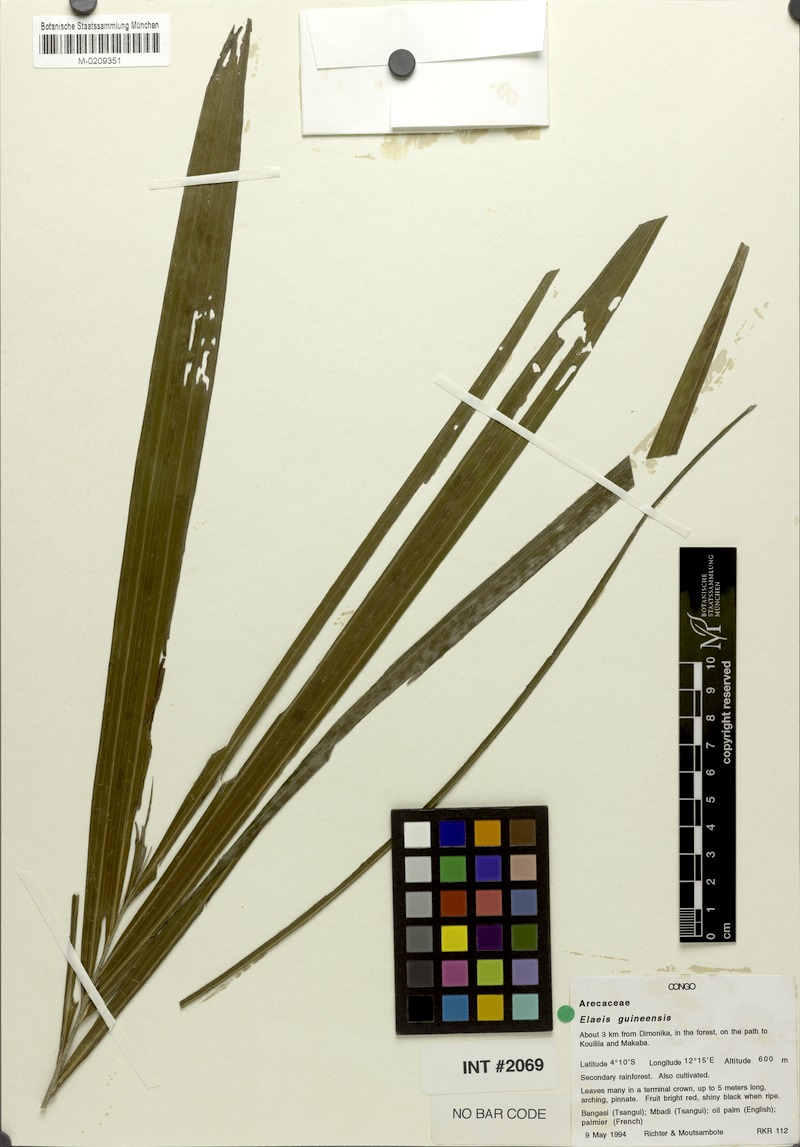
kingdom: Plantae
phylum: Tracheophyta
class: Liliopsida
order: Arecales
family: Arecaceae
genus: Elaeis
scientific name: Elaeis guineensis
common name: Oil palm
